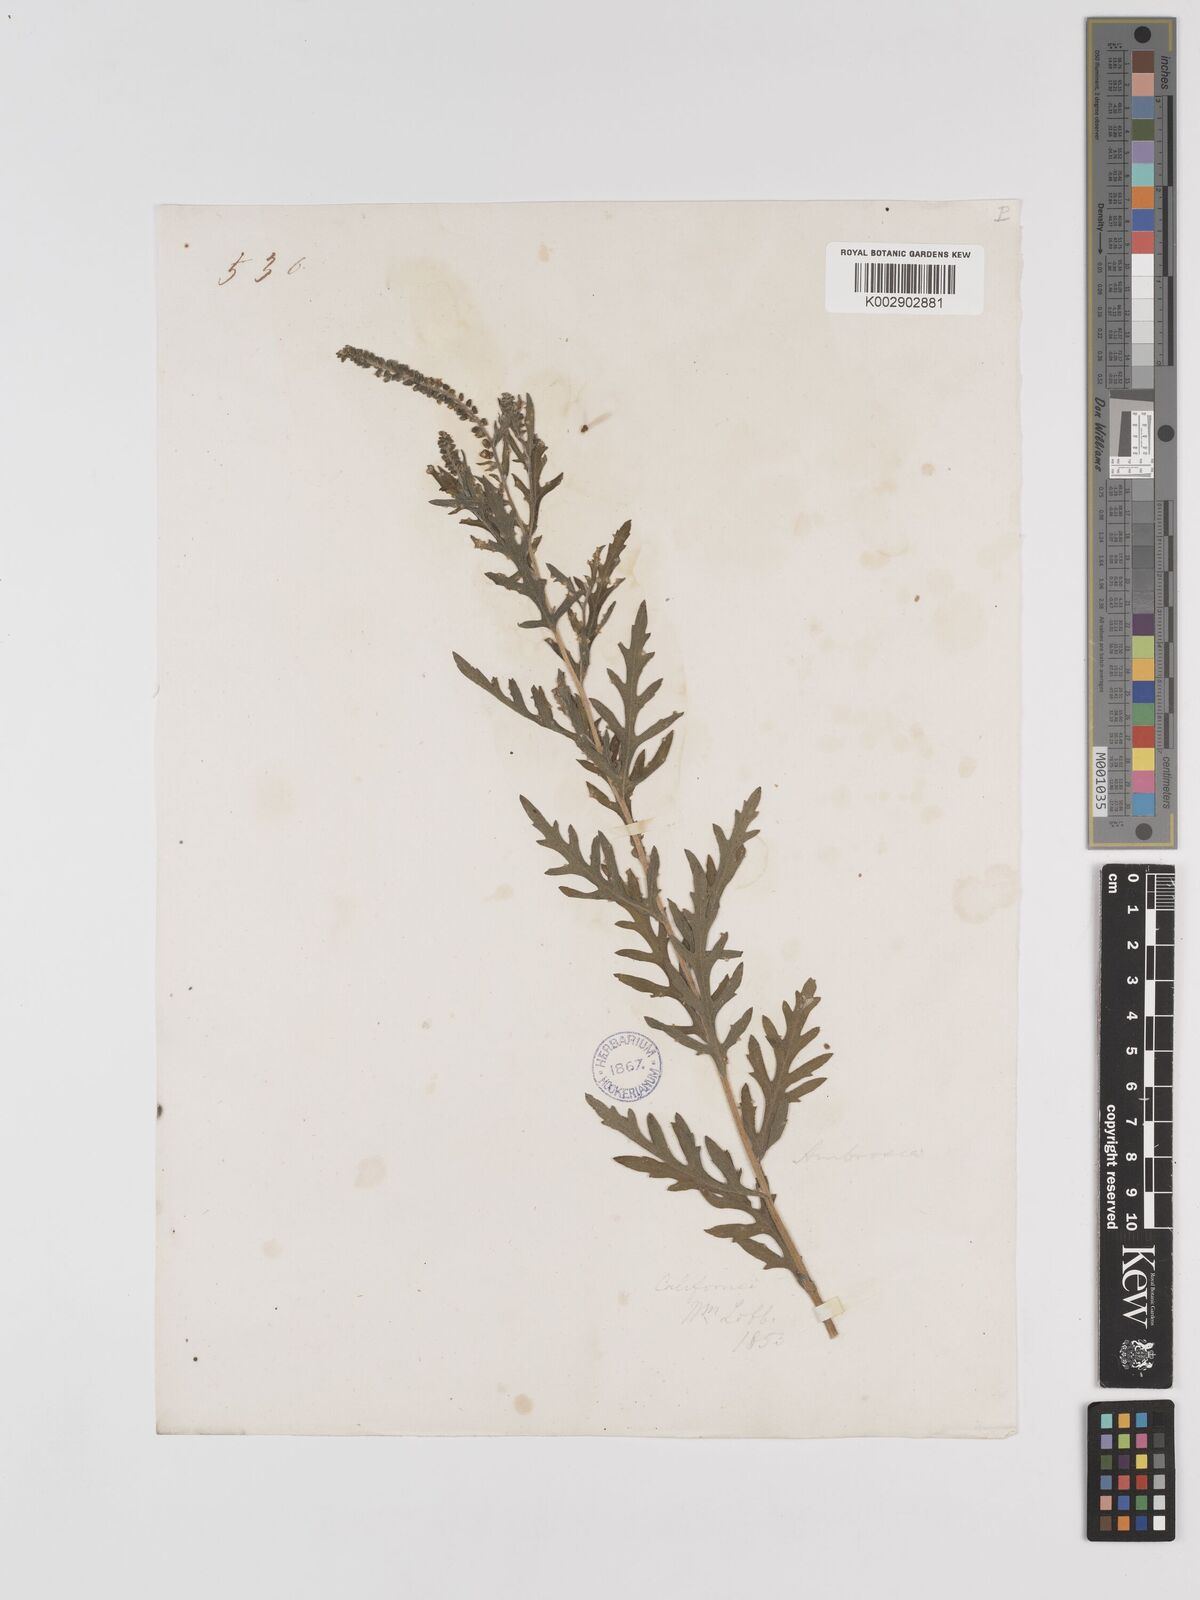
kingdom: Plantae
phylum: Tracheophyta
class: Magnoliopsida
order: Asterales
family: Asteraceae
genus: Ambrosia
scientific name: Ambrosia psilostachya
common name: Perennial ragweed
